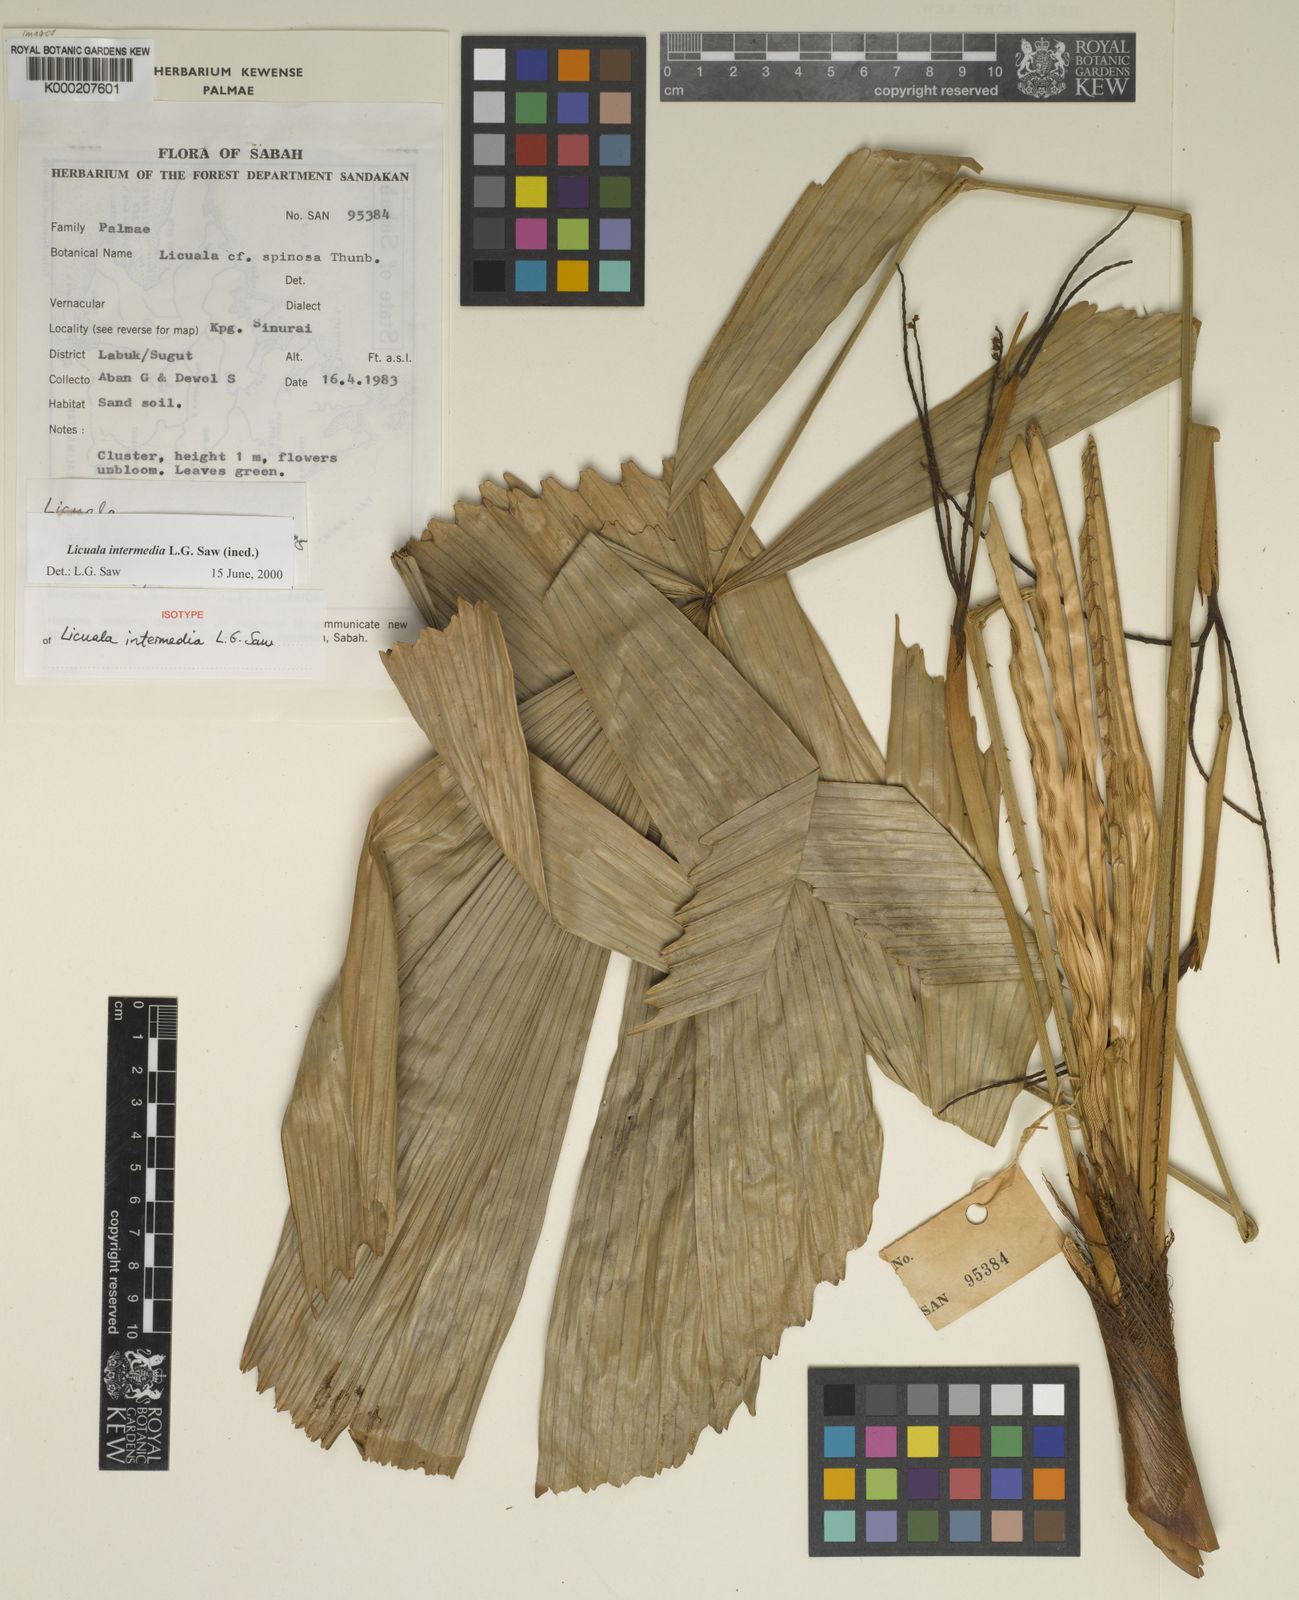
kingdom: Plantae
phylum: Tracheophyta
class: Liliopsida
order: Arecales
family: Arecaceae
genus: Licuala
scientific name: Licuala intermedia
